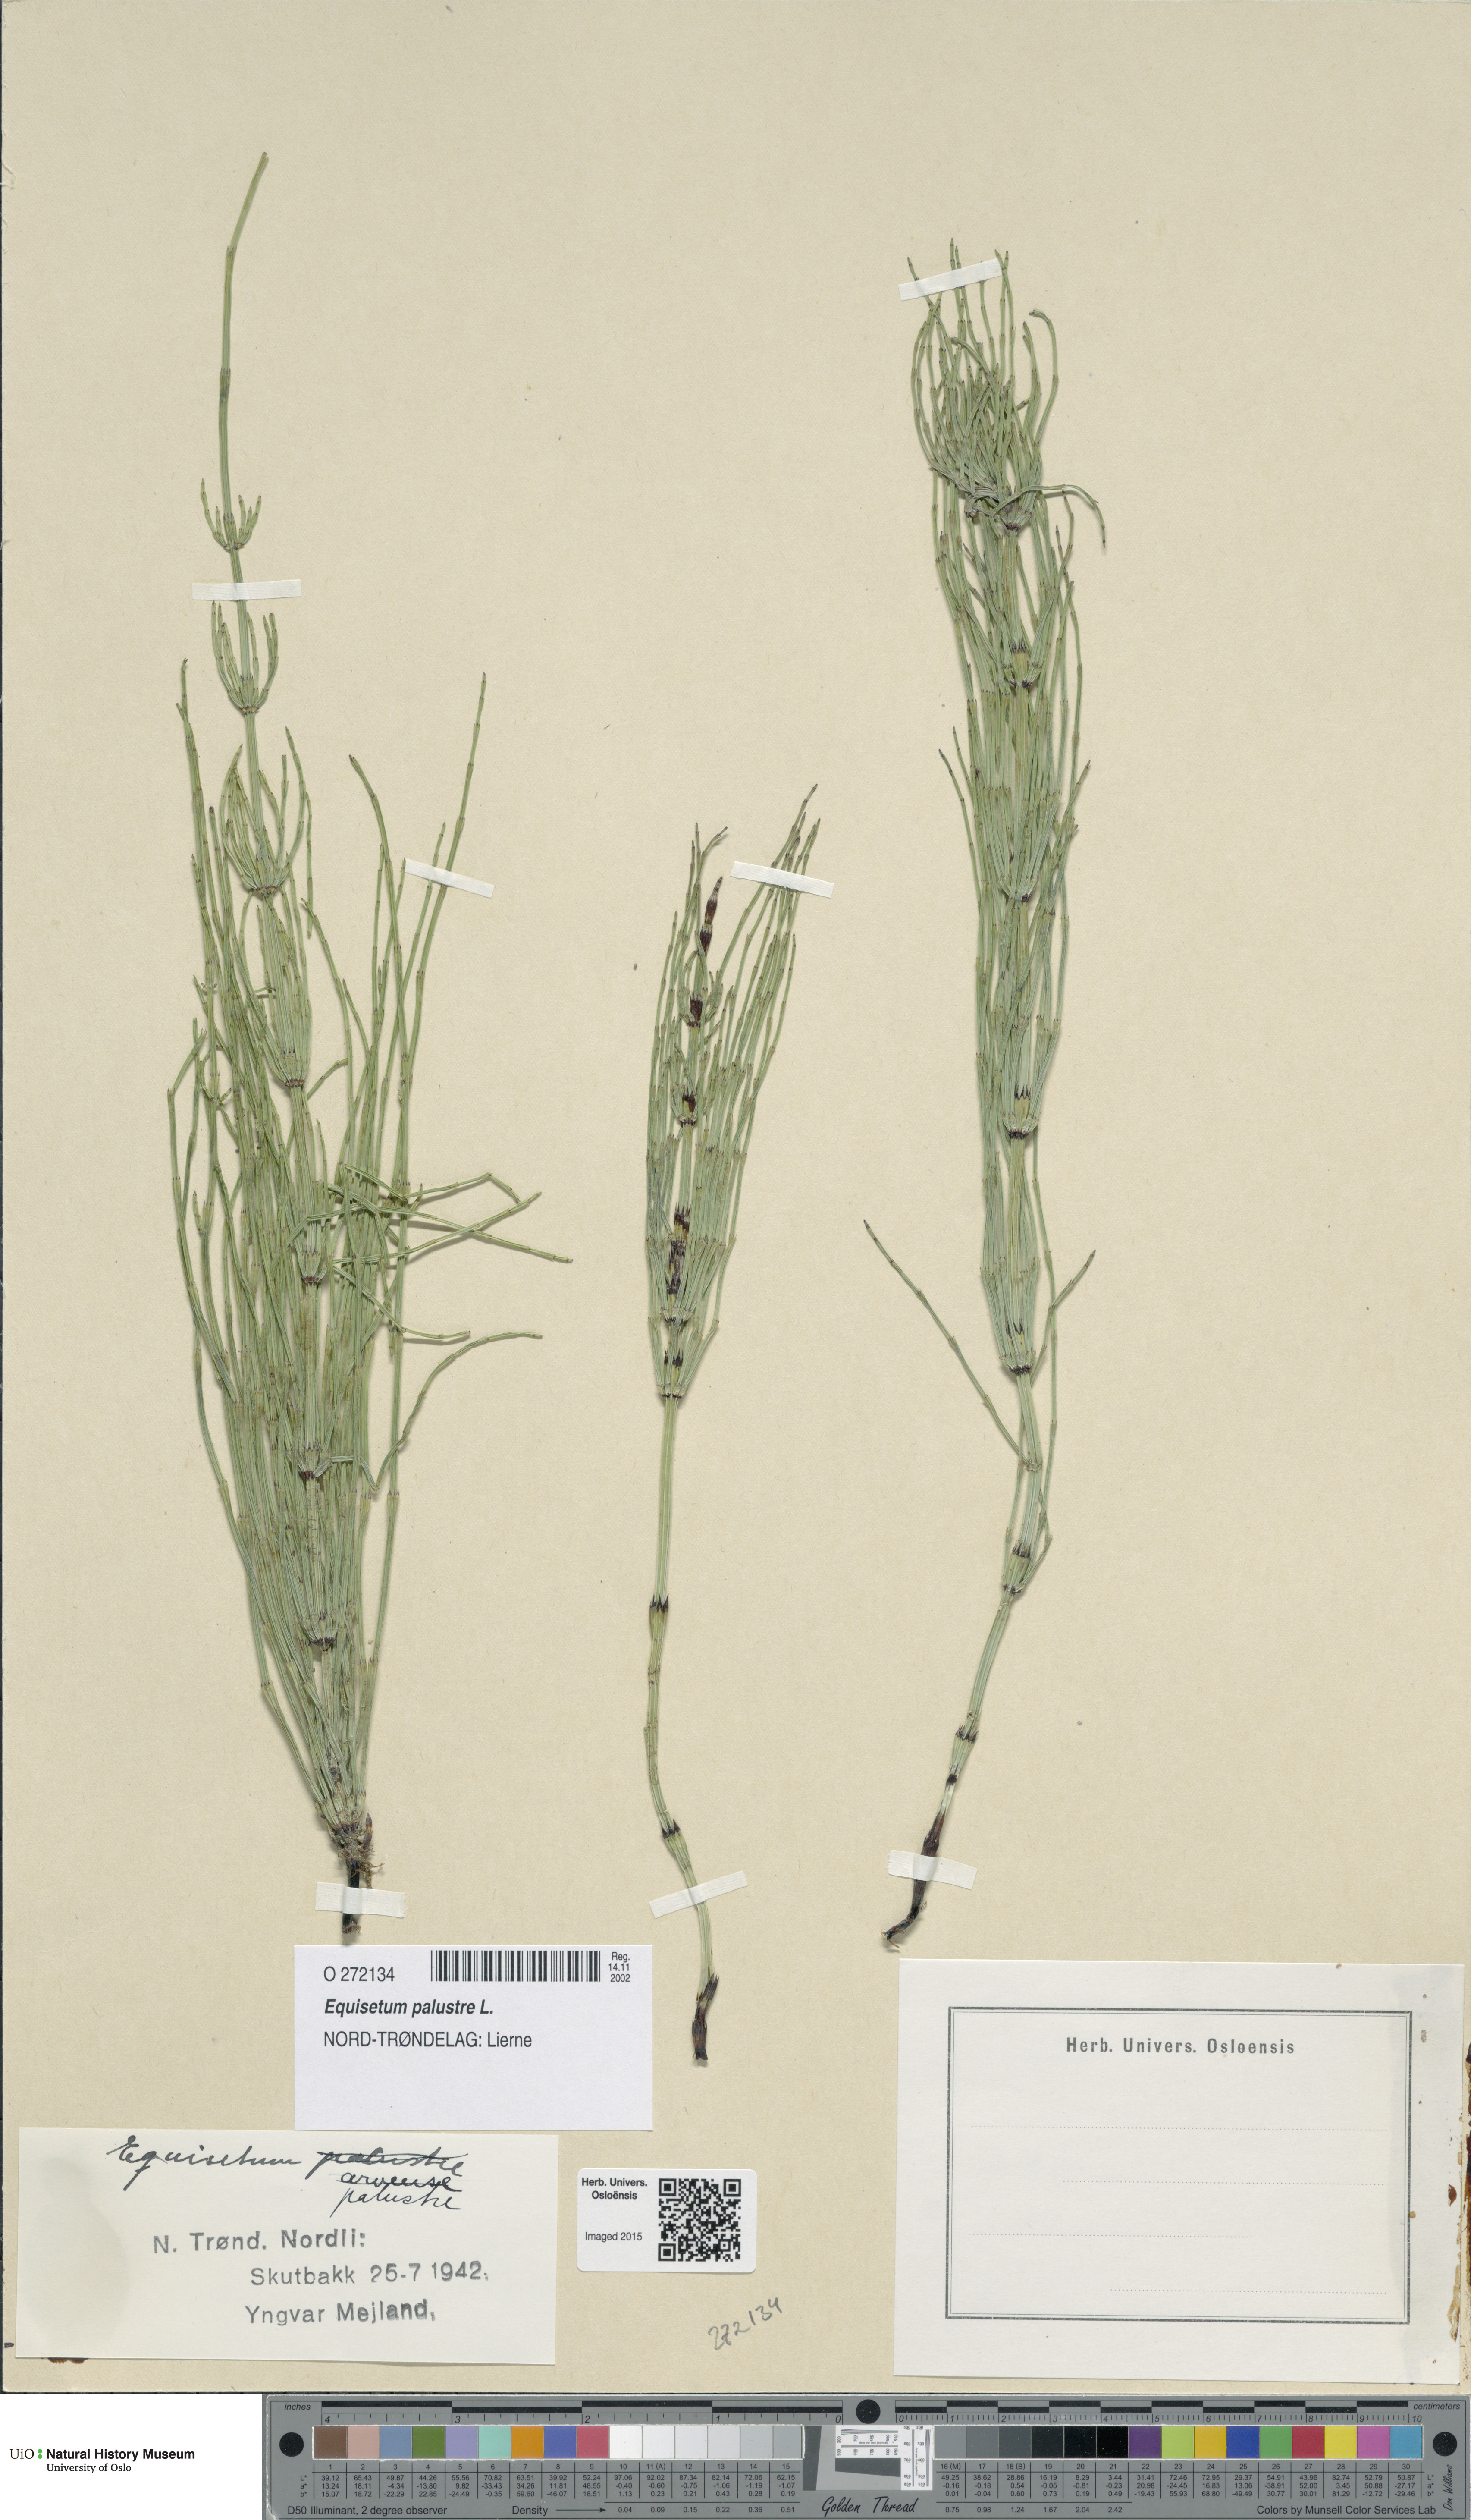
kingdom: Plantae
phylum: Tracheophyta
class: Polypodiopsida
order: Equisetales
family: Equisetaceae
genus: Equisetum
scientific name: Equisetum palustre
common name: Marsh horsetail
